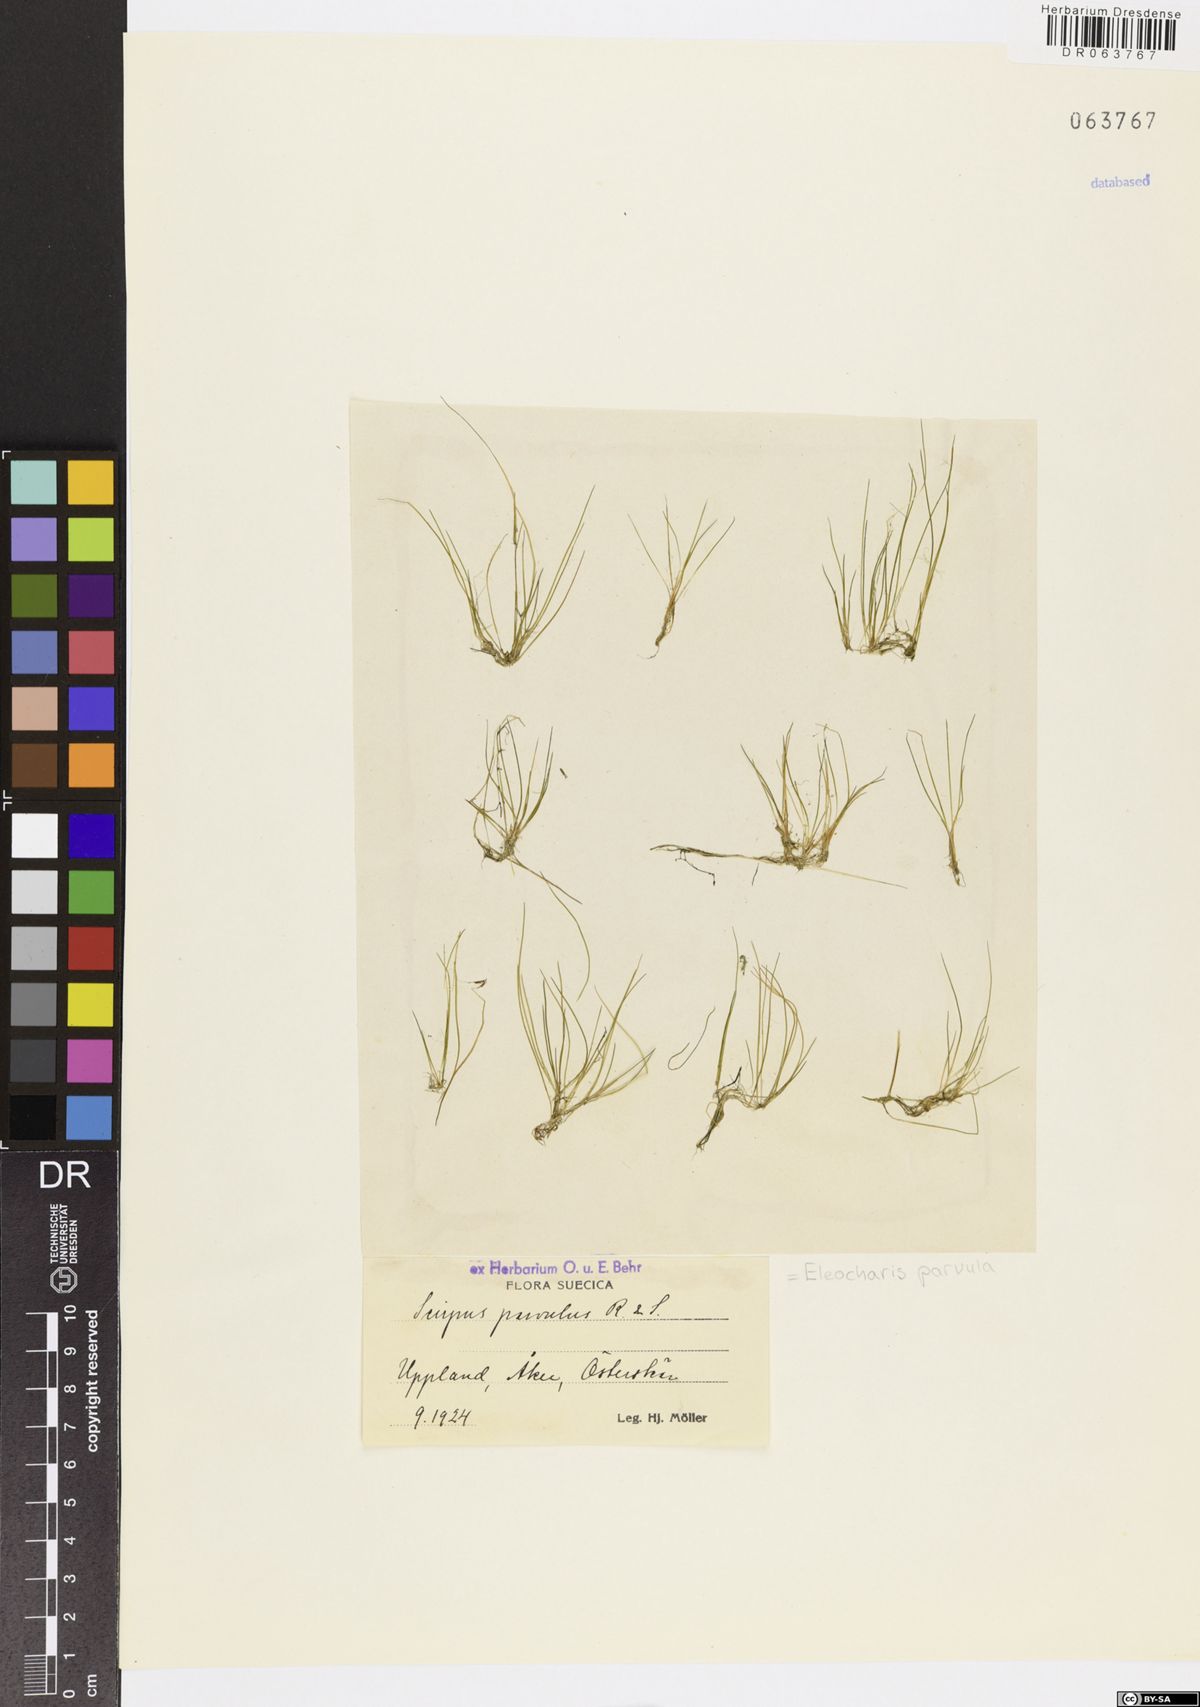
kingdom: Plantae
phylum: Tracheophyta
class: Liliopsida
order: Poales
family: Cyperaceae
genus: Eleocharis
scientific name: Eleocharis parvula
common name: Dwarf spike-rush
